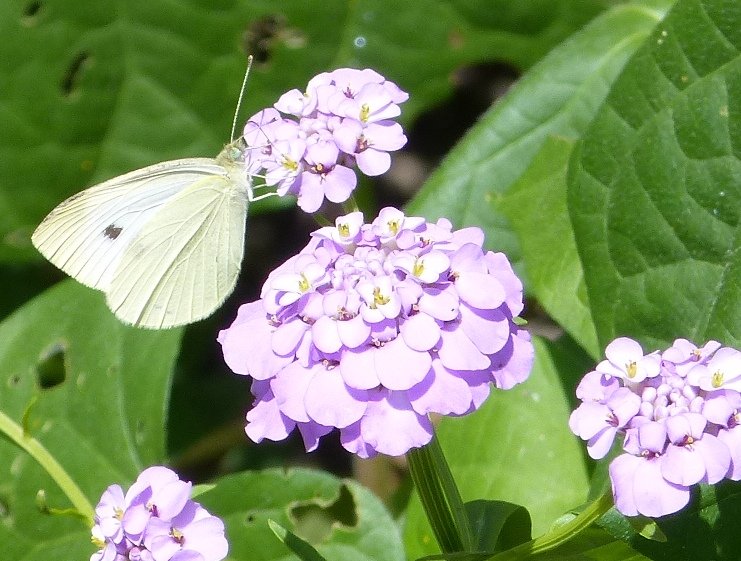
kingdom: Animalia
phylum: Arthropoda
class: Insecta
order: Lepidoptera
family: Pieridae
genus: Pieris
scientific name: Pieris rapae
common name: Cabbage White
